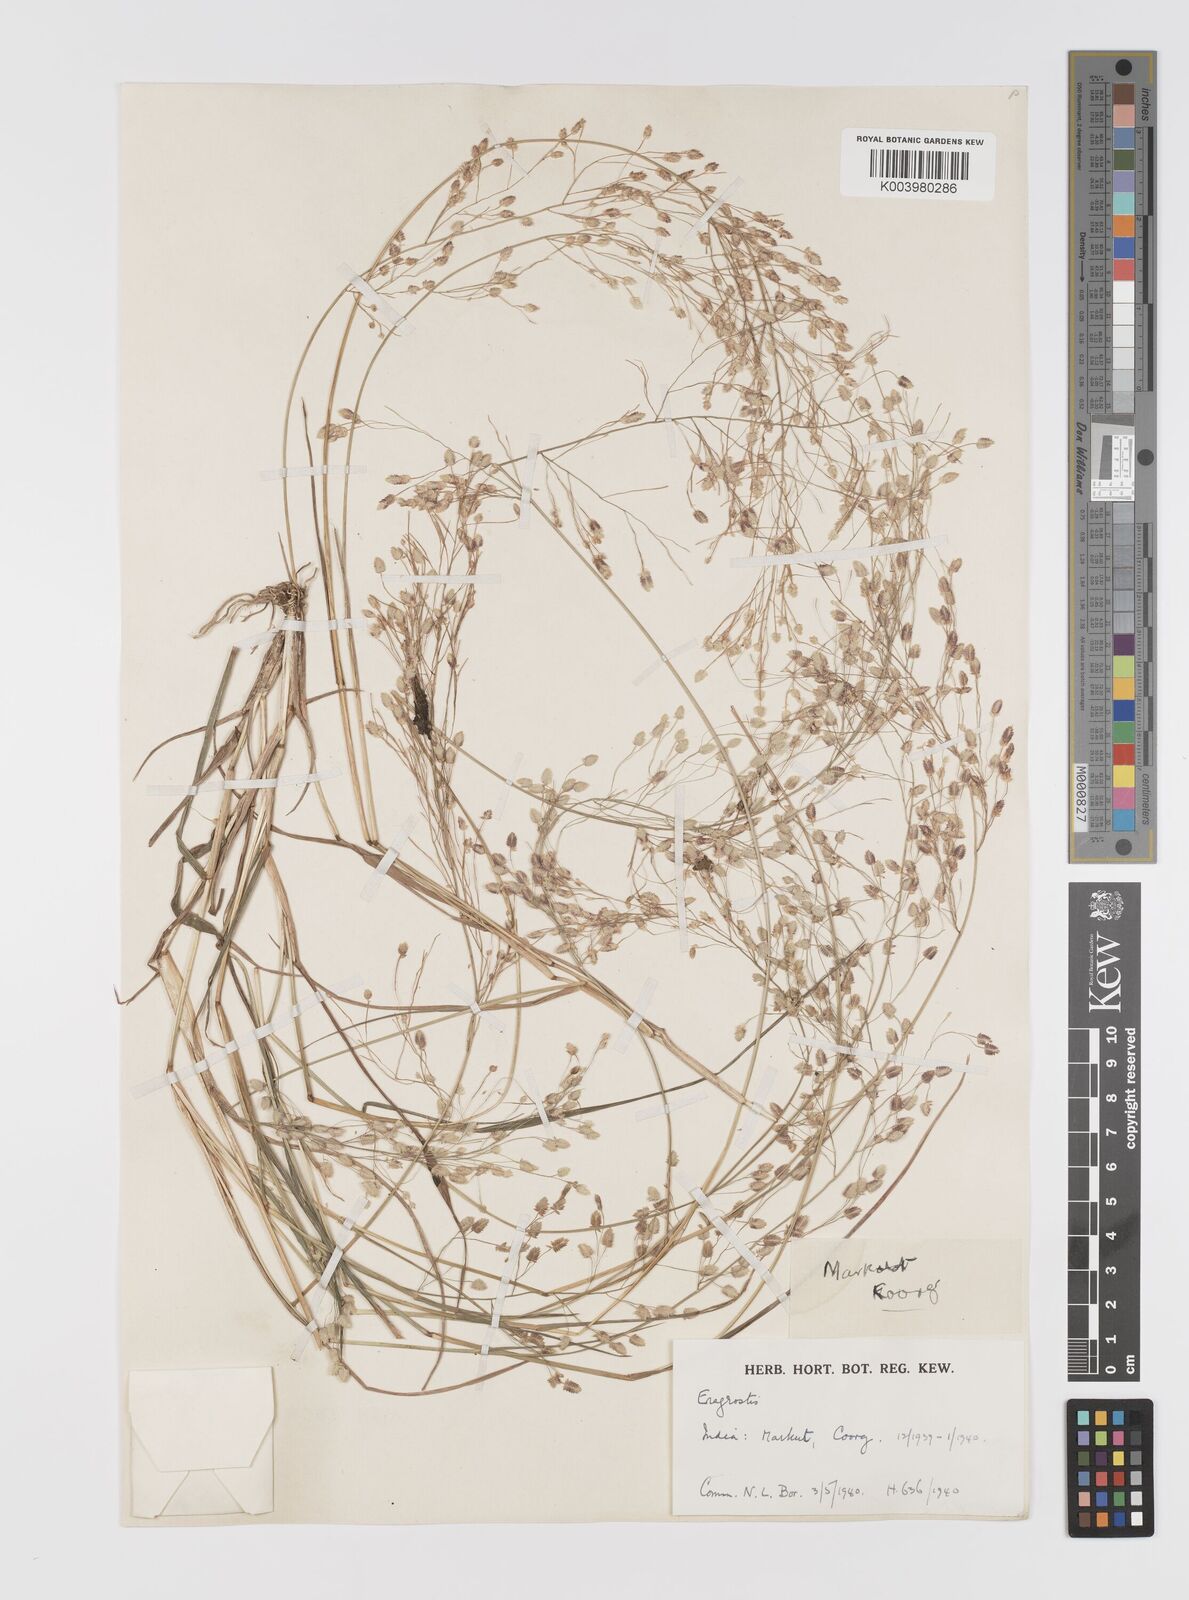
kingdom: Plantae
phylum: Tracheophyta
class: Liliopsida
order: Poales
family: Poaceae
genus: Eragrostis
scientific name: Eragrostis unioloides
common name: Chinese lovegrass
